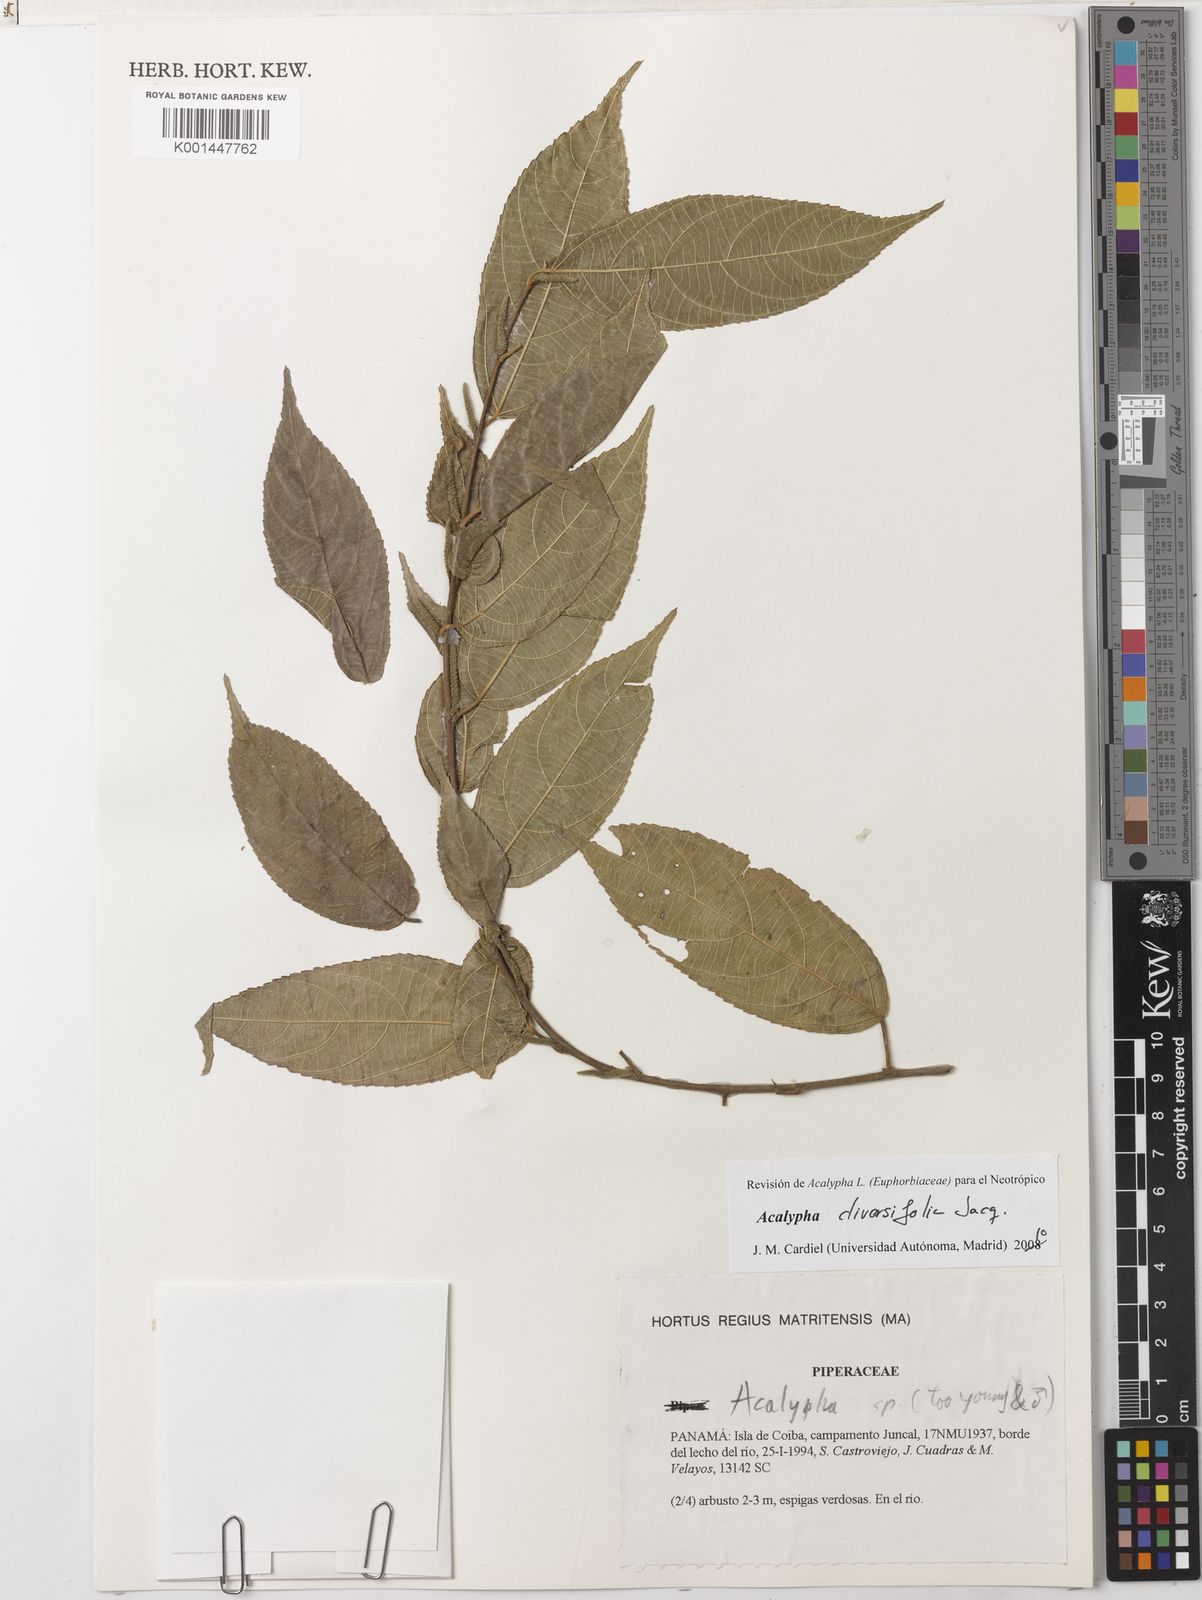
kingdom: Plantae
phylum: Tracheophyta
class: Magnoliopsida
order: Malpighiales
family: Euphorbiaceae
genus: Acalypha
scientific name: Acalypha diversifolia
